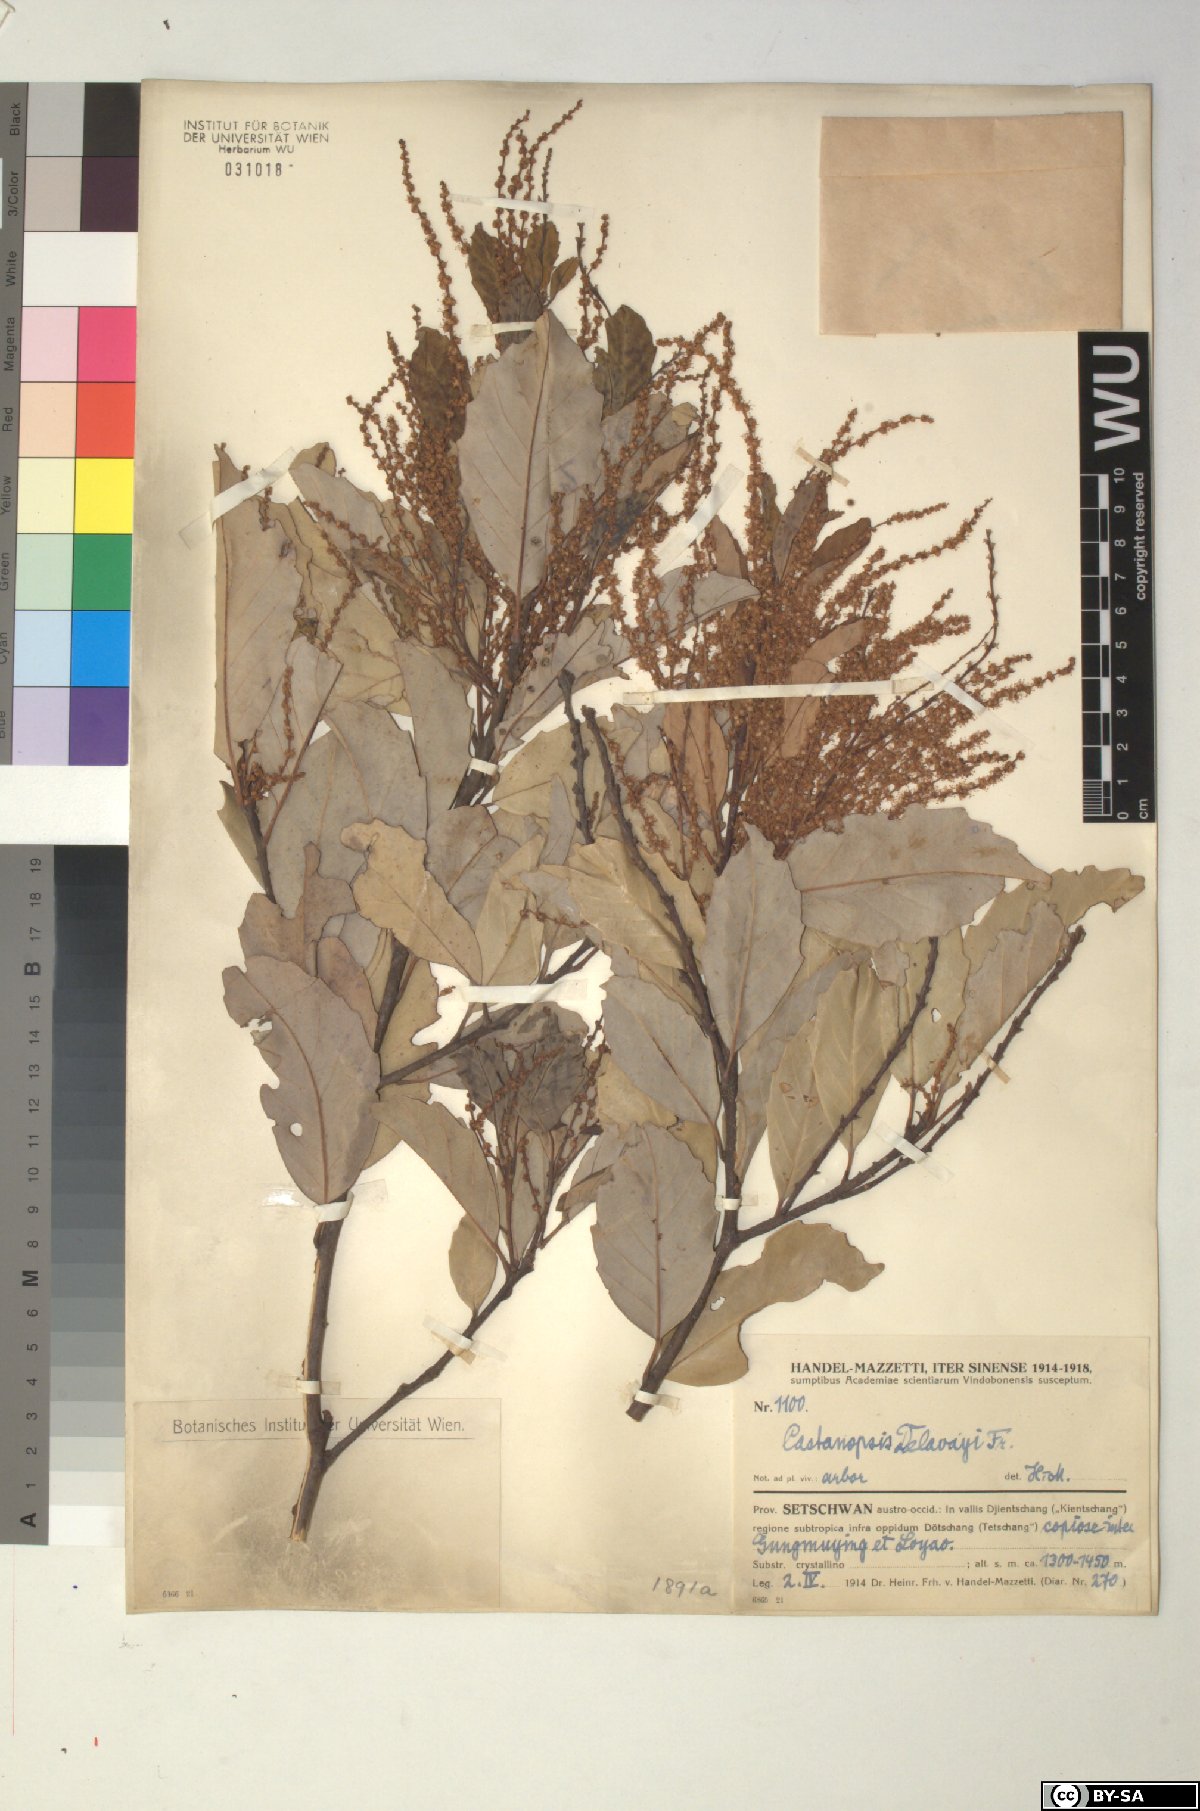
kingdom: Plantae
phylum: Tracheophyta
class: Magnoliopsida
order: Fagales
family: Fagaceae
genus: Castanopsis
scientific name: Castanopsis delavayi
